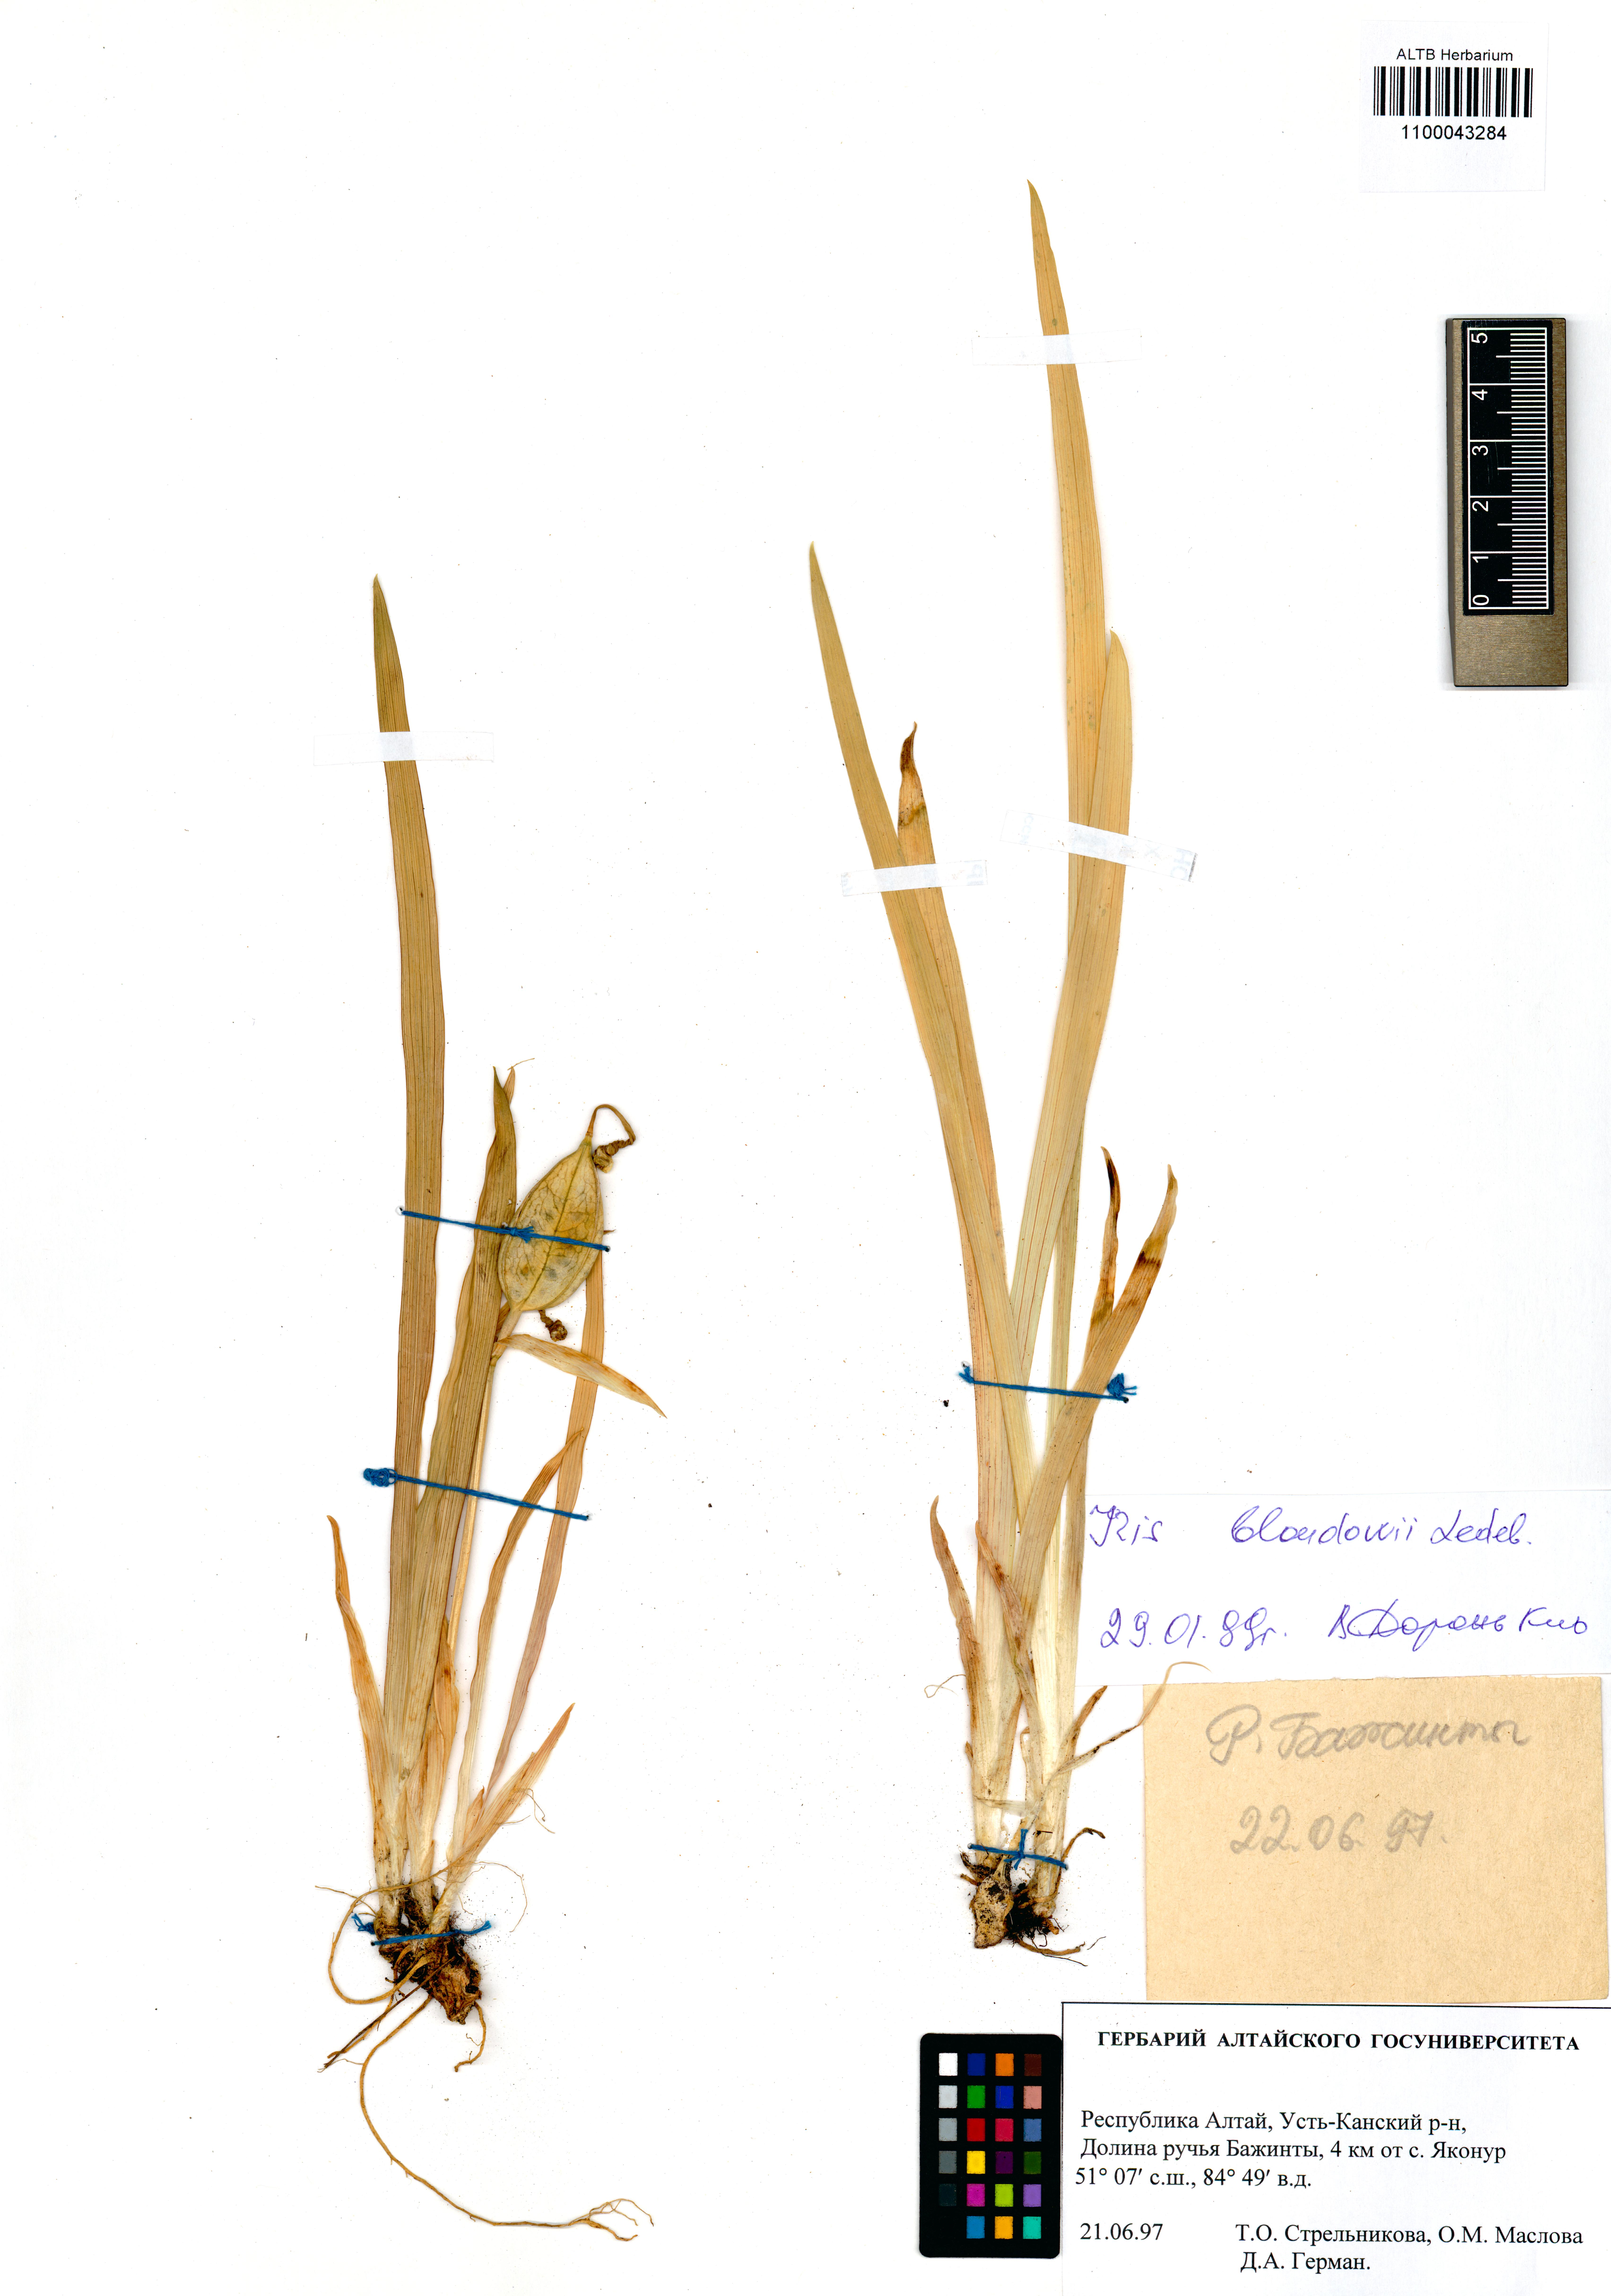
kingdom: Plantae
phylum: Tracheophyta
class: Liliopsida
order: Asparagales
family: Iridaceae
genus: Iris
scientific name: Iris bloudowii
